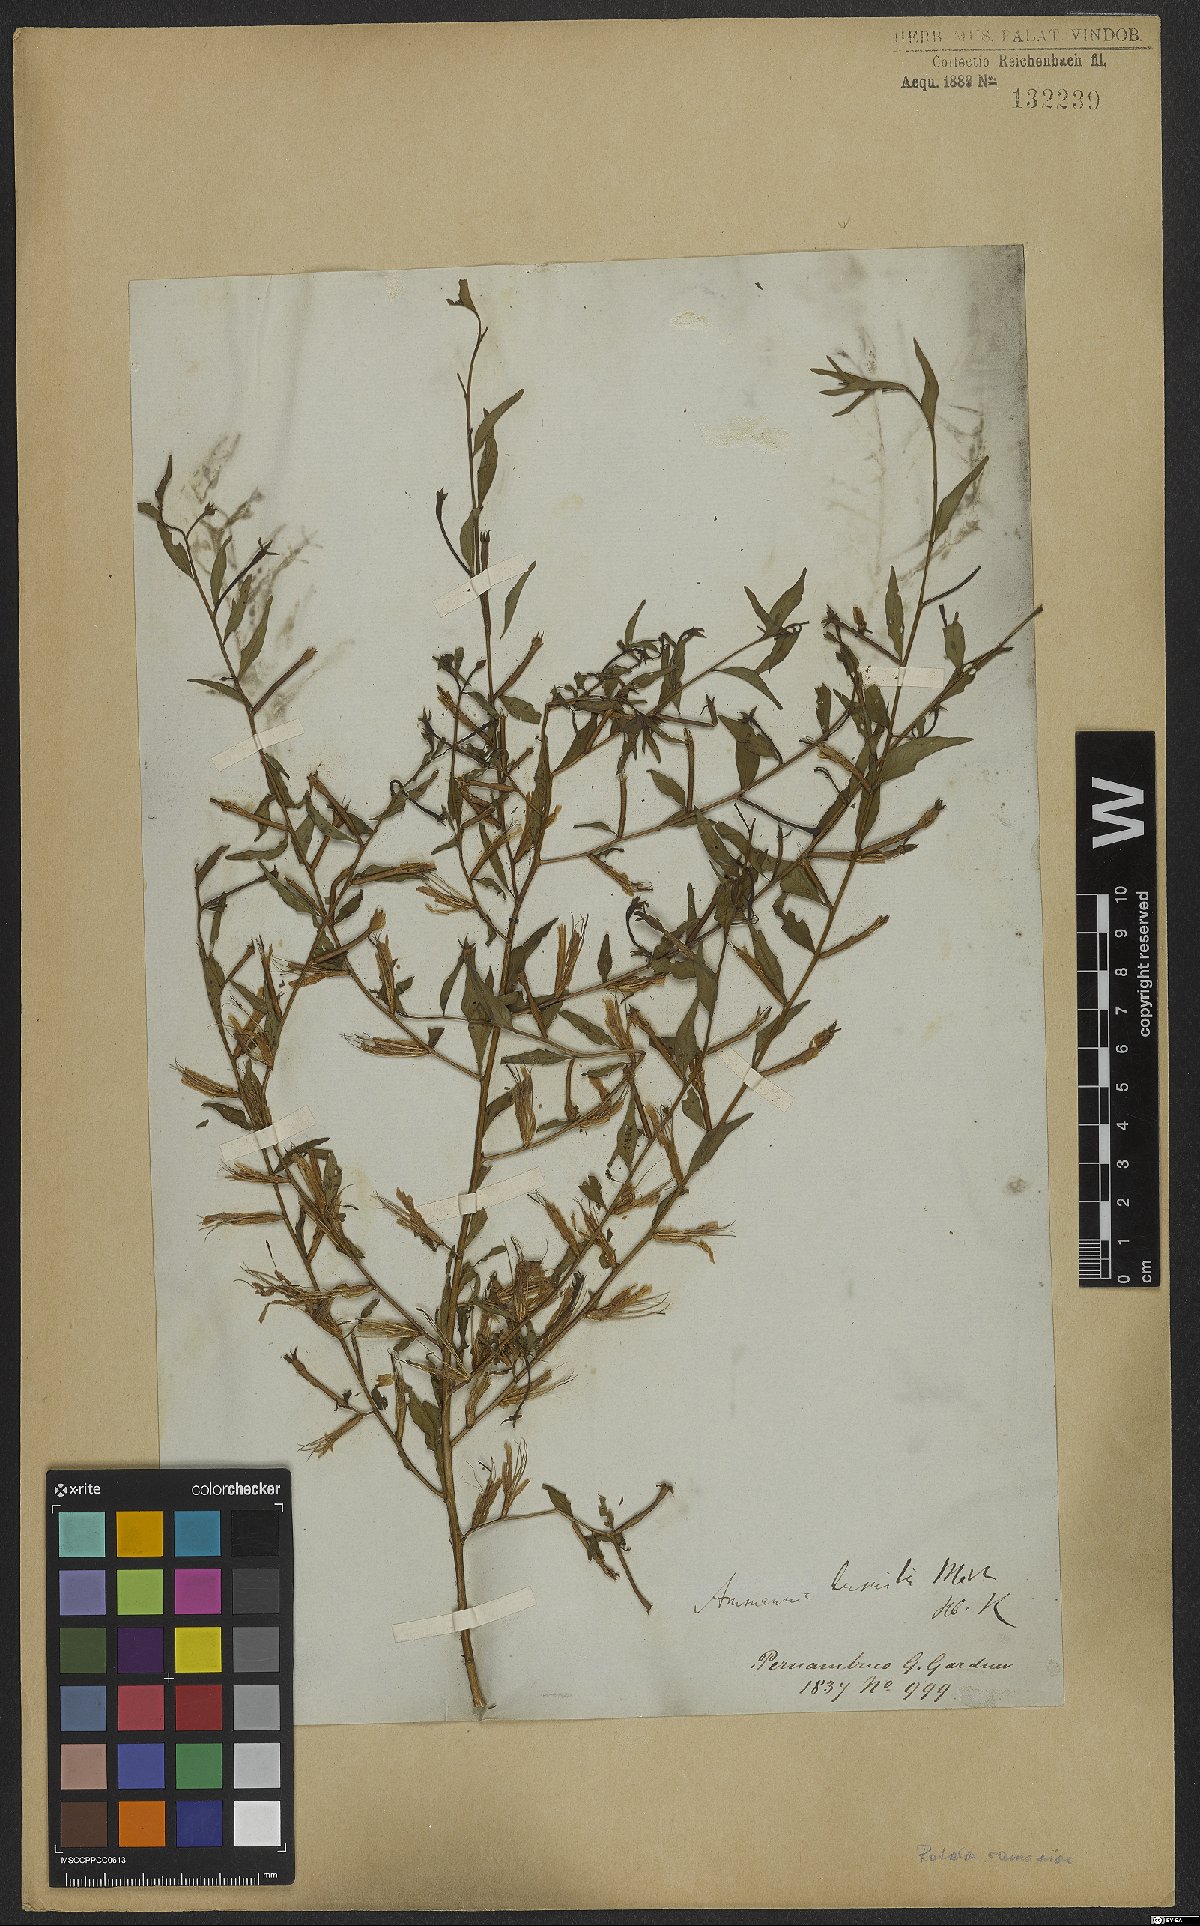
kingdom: Plantae
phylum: Tracheophyta
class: Magnoliopsida
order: Myrtales
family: Lythraceae
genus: Rotala
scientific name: Rotala ramosior
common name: Lowland rotala
